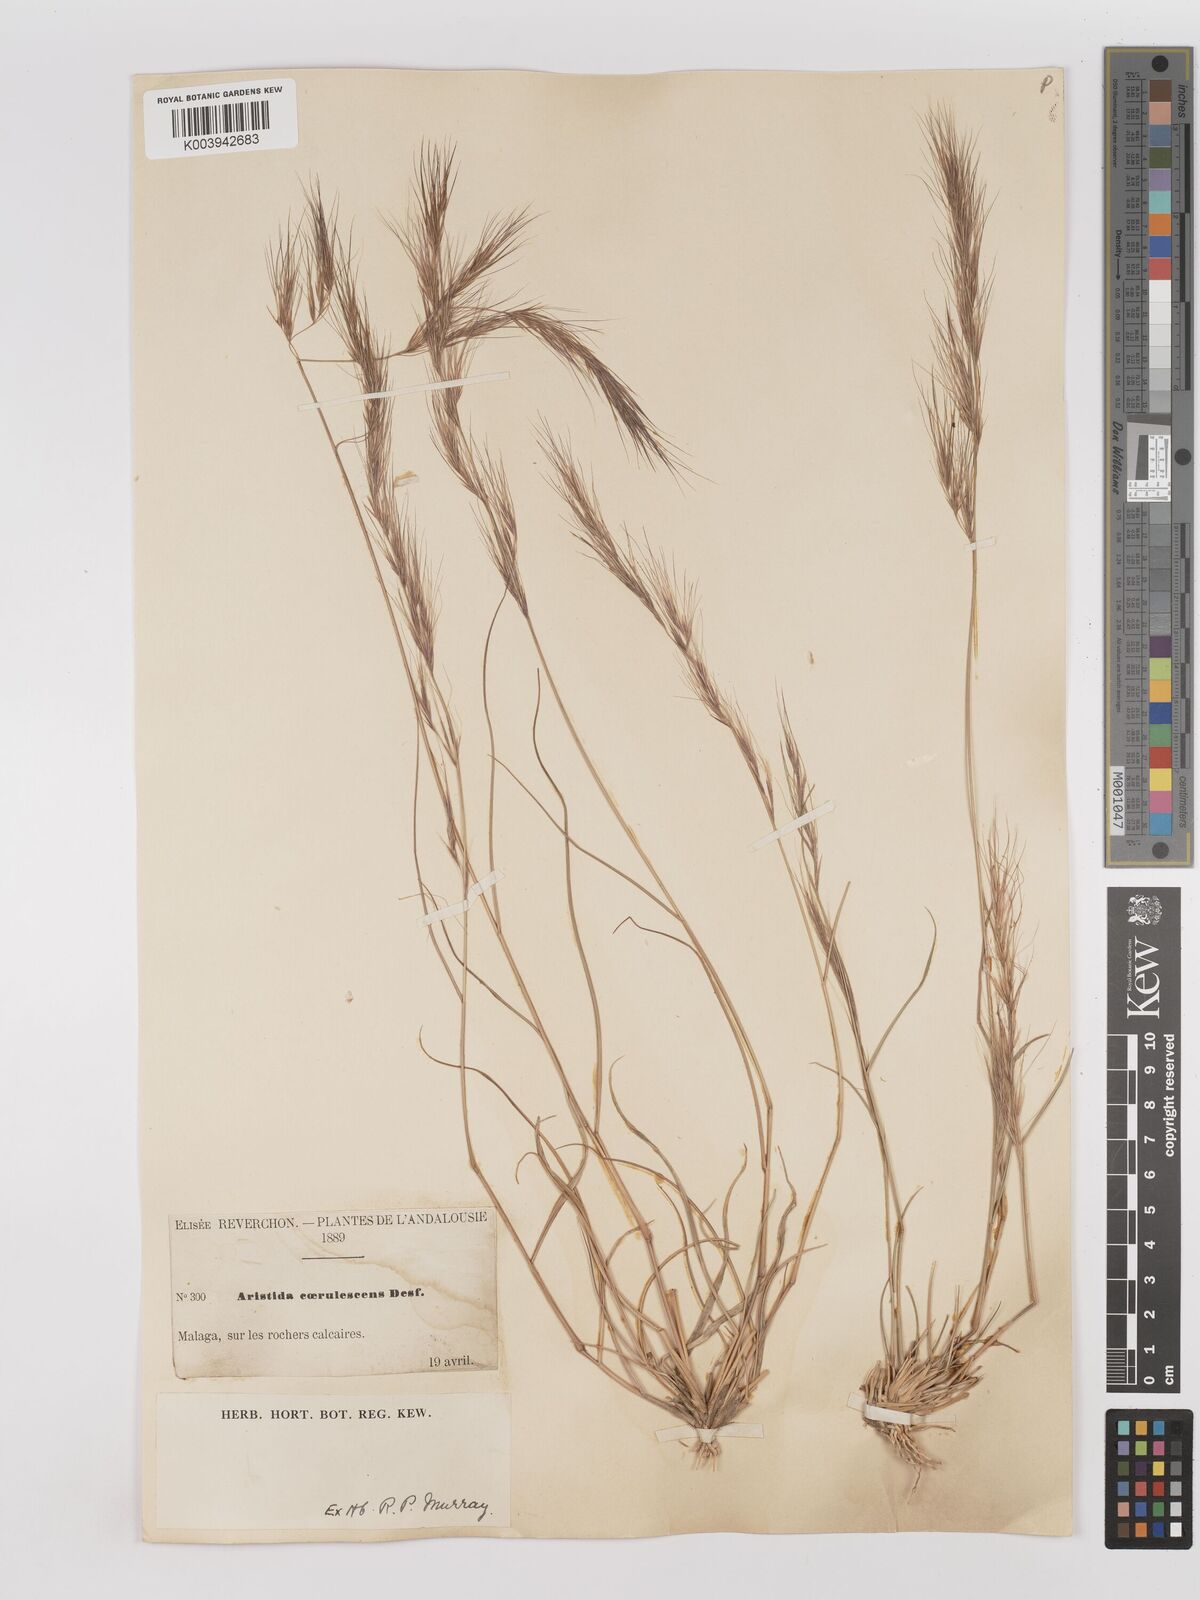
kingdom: Plantae
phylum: Tracheophyta
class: Liliopsida
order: Poales
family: Poaceae
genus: Aristida
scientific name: Aristida adscensionis
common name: Sixweeks threeawn
